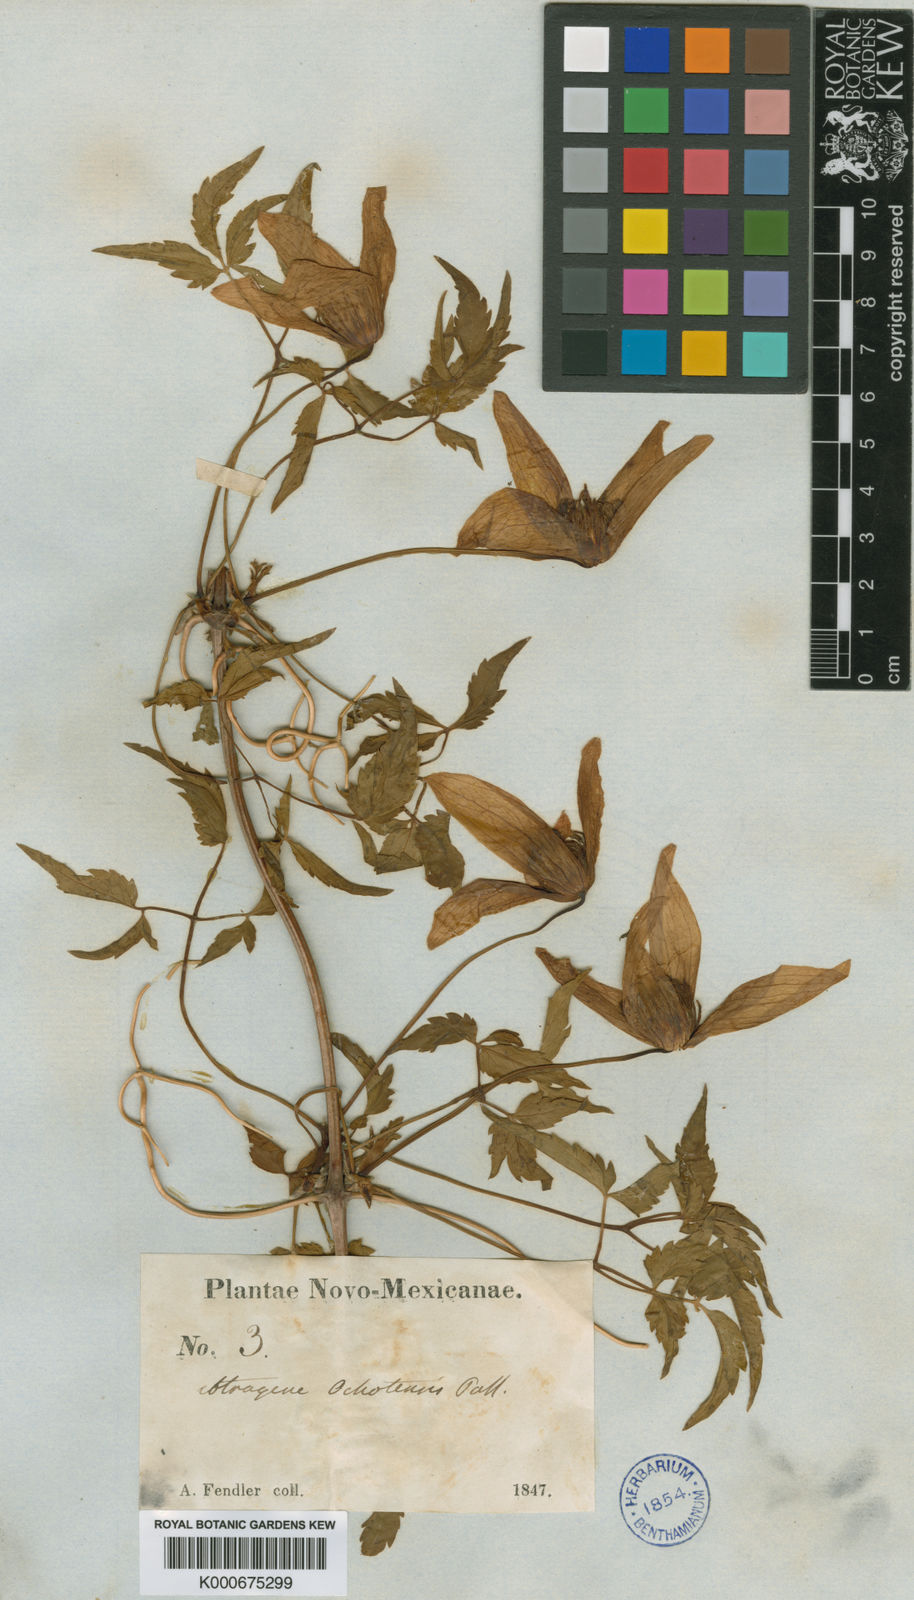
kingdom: Plantae
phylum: Tracheophyta
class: Magnoliopsida
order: Ranunculales
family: Ranunculaceae
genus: Clematis
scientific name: Clematis ochotensis
